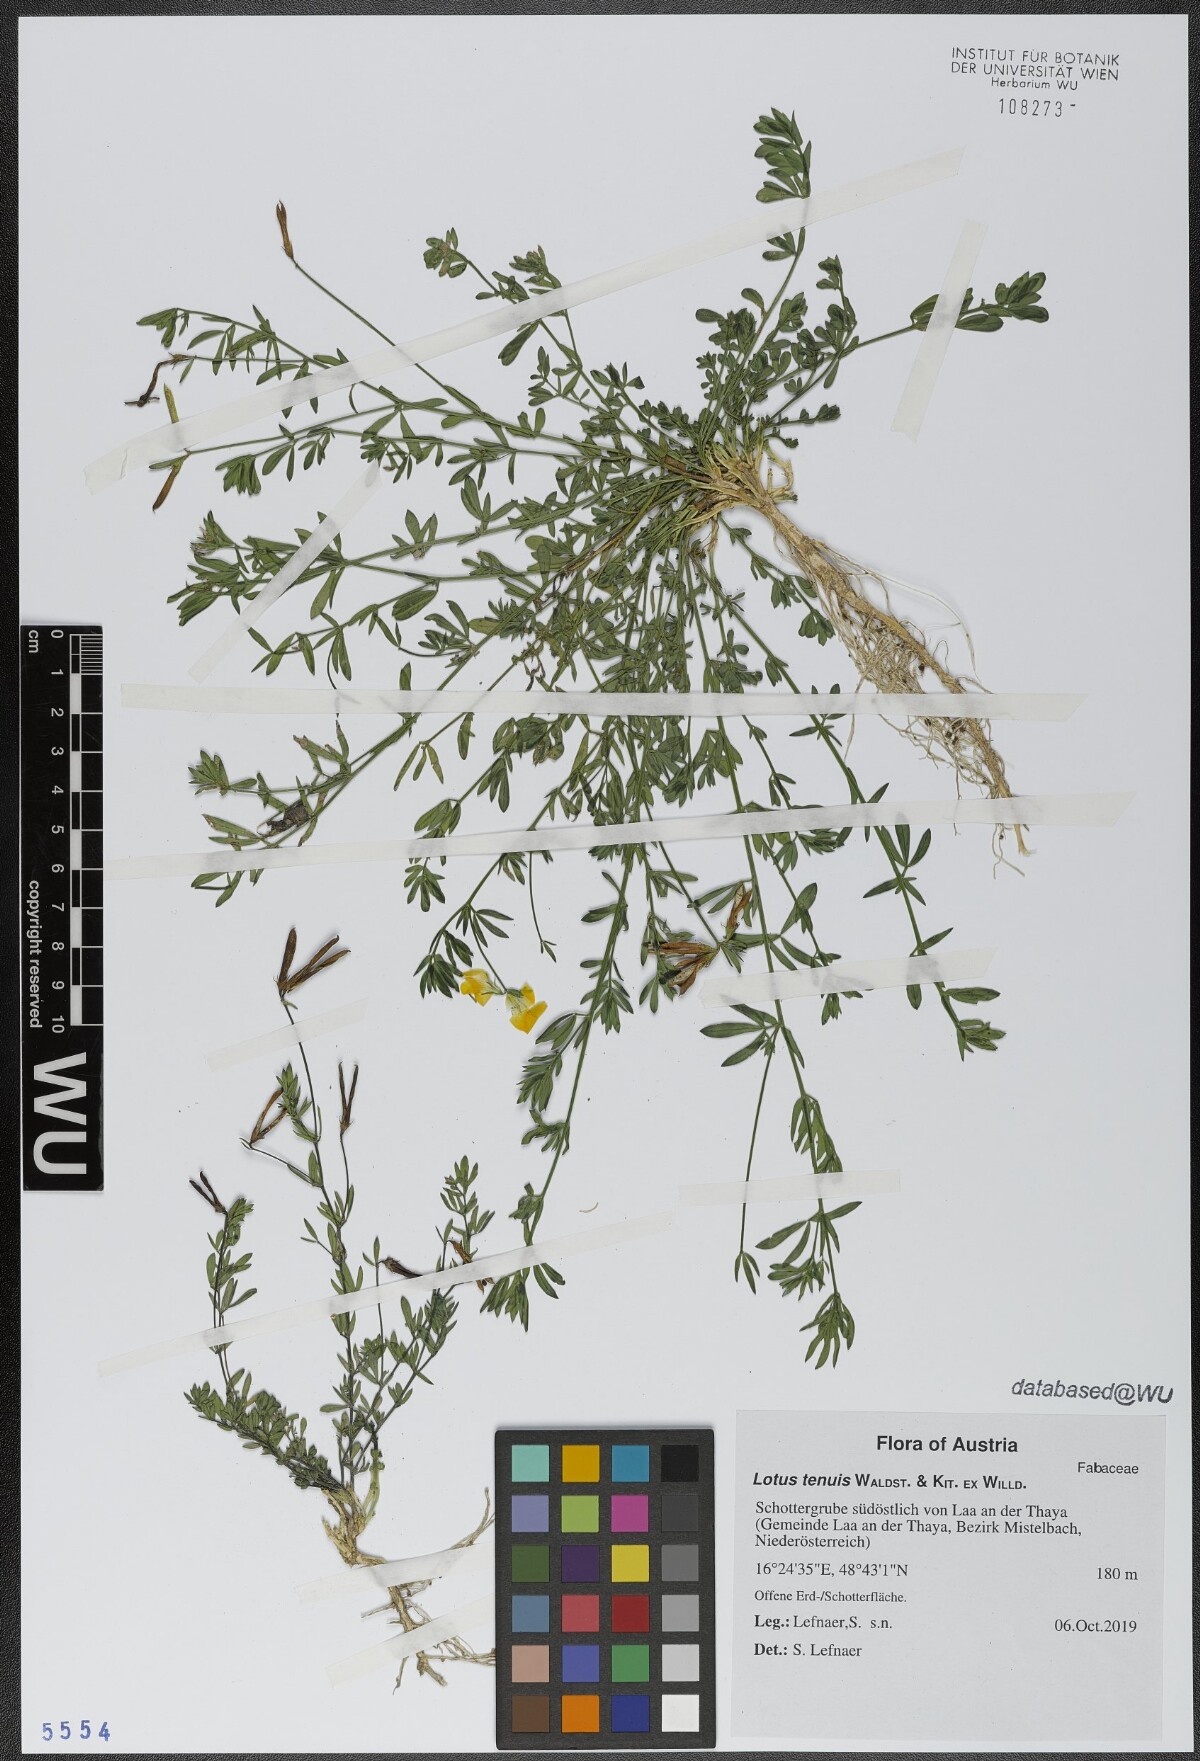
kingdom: Plantae
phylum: Tracheophyta
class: Magnoliopsida
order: Fabales
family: Fabaceae
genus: Lotus
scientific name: Lotus tenuis
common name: Narrow-leaved bird's-foot-trefoil
